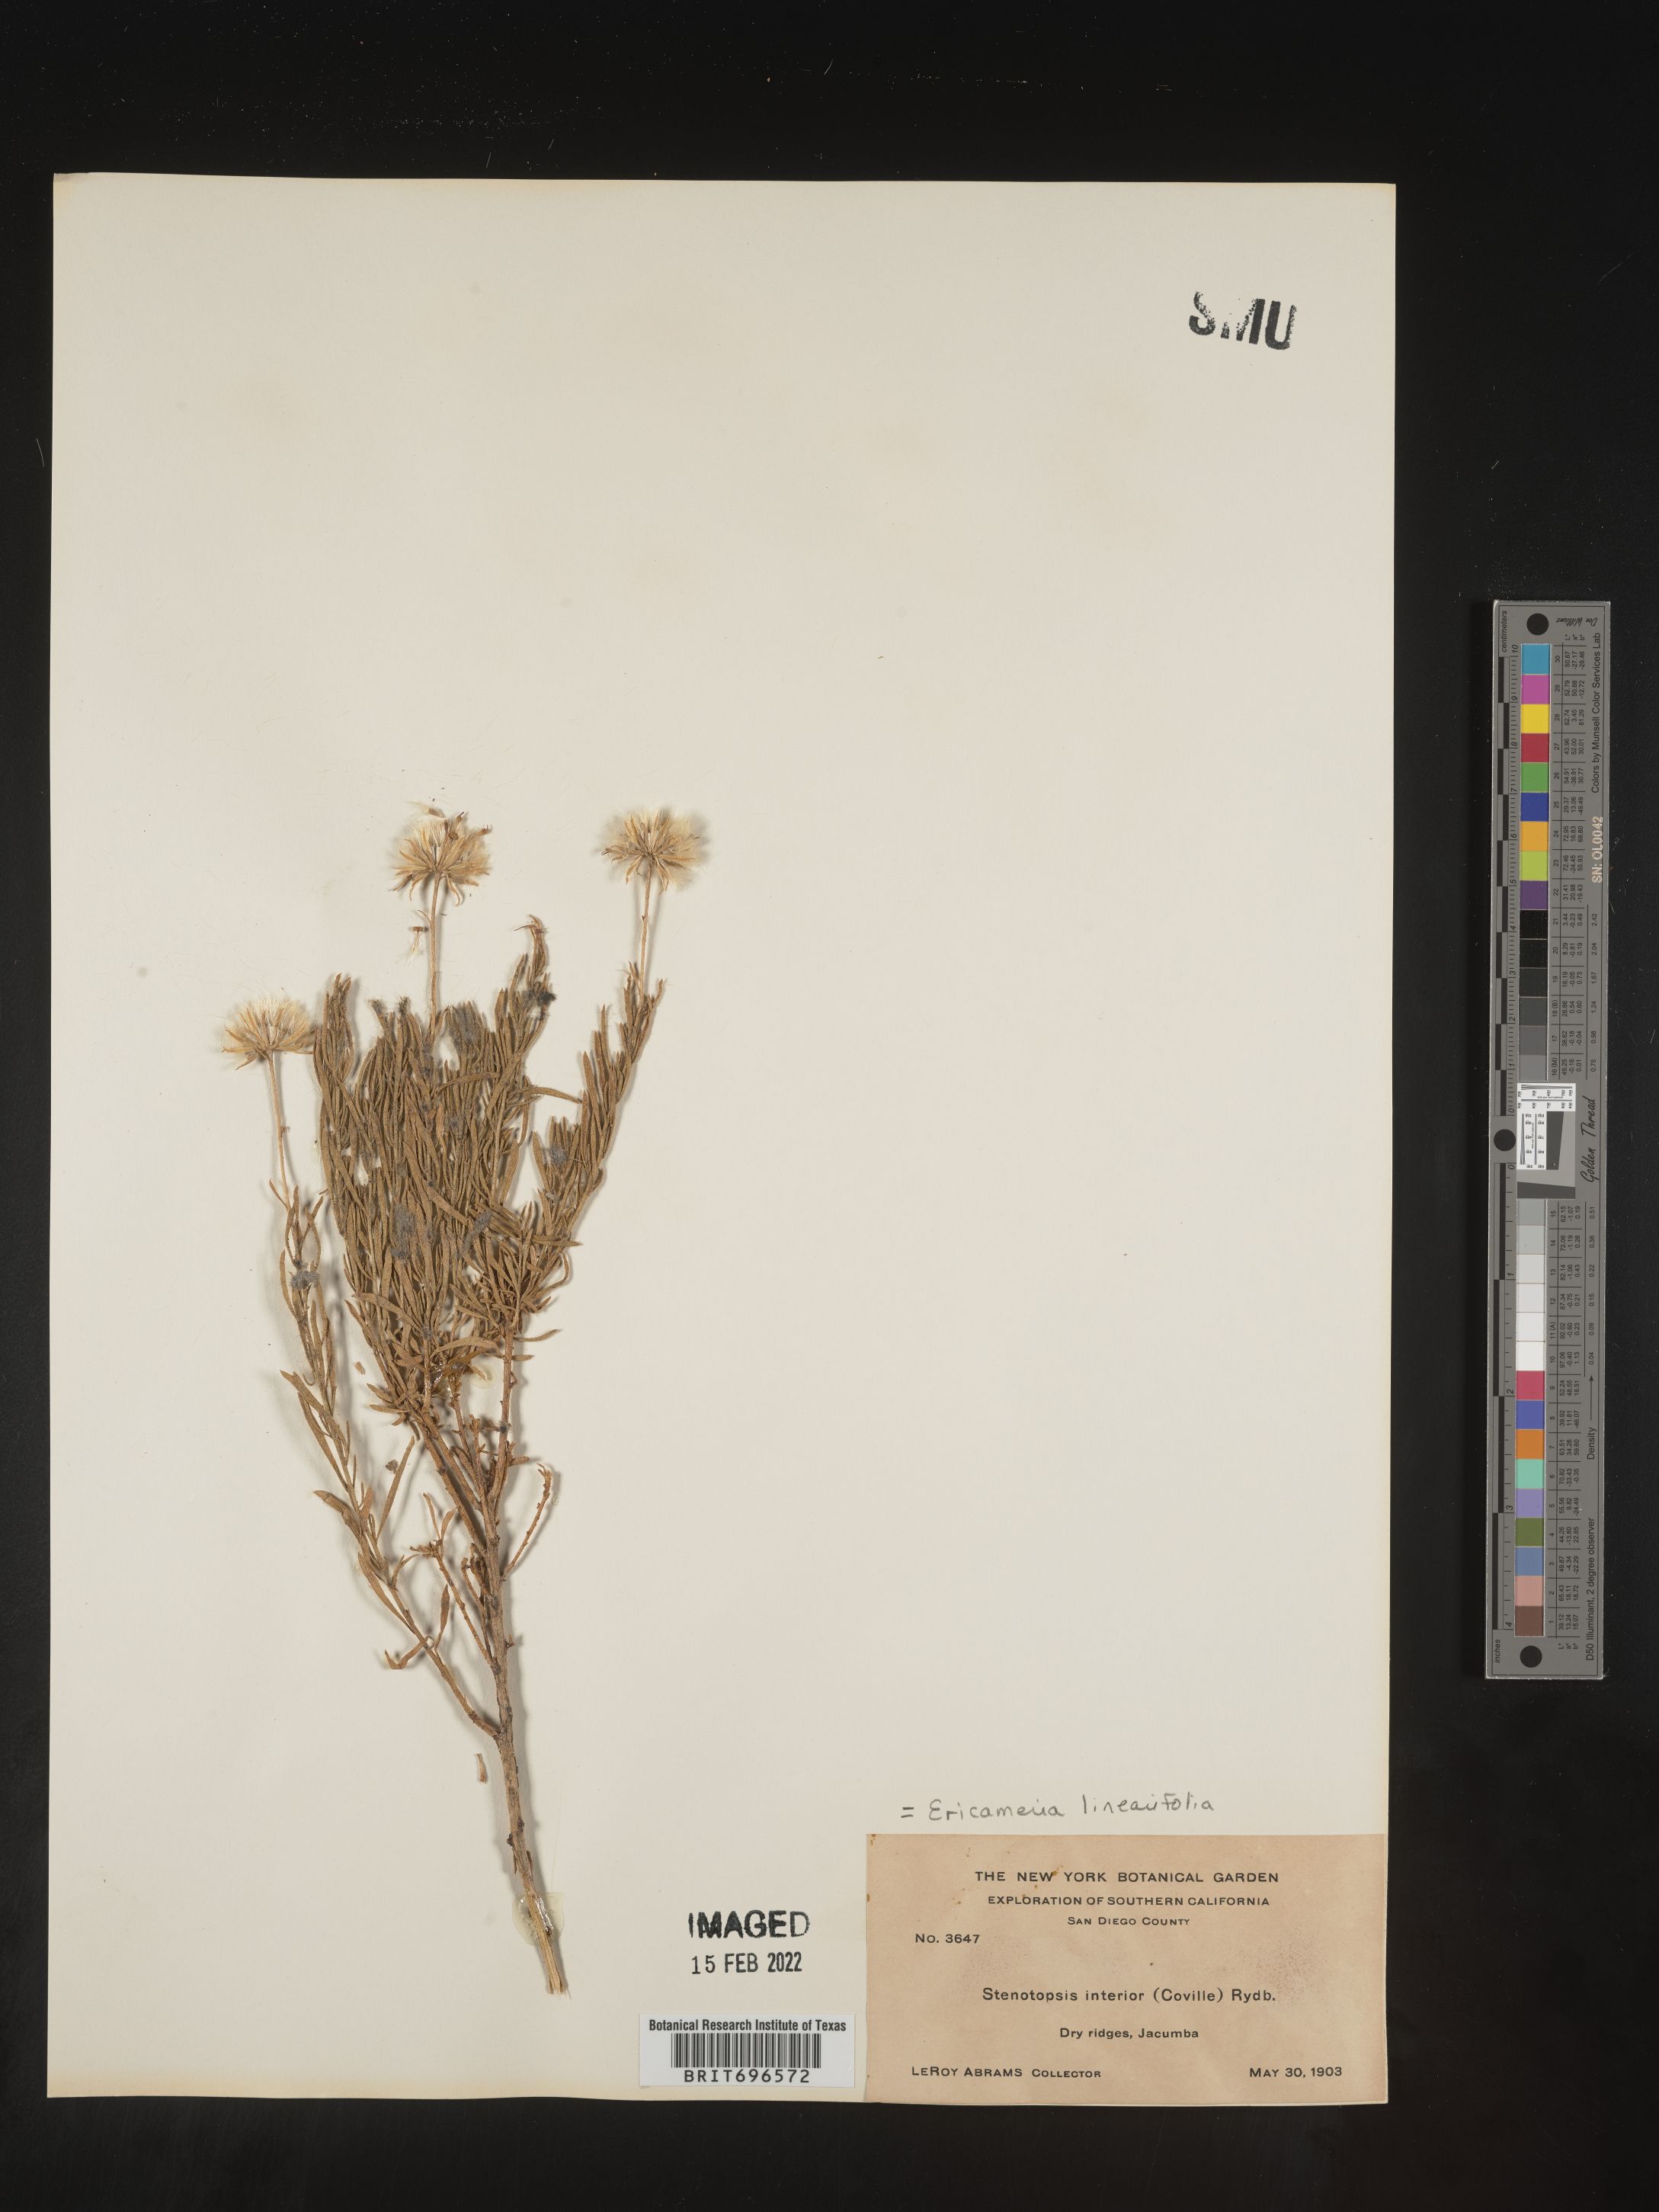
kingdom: Plantae
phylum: Tracheophyta
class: Magnoliopsida
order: Asterales
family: Asteraceae
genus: Ericameria
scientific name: Ericameria linearifolia
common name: Interior goldenbush
